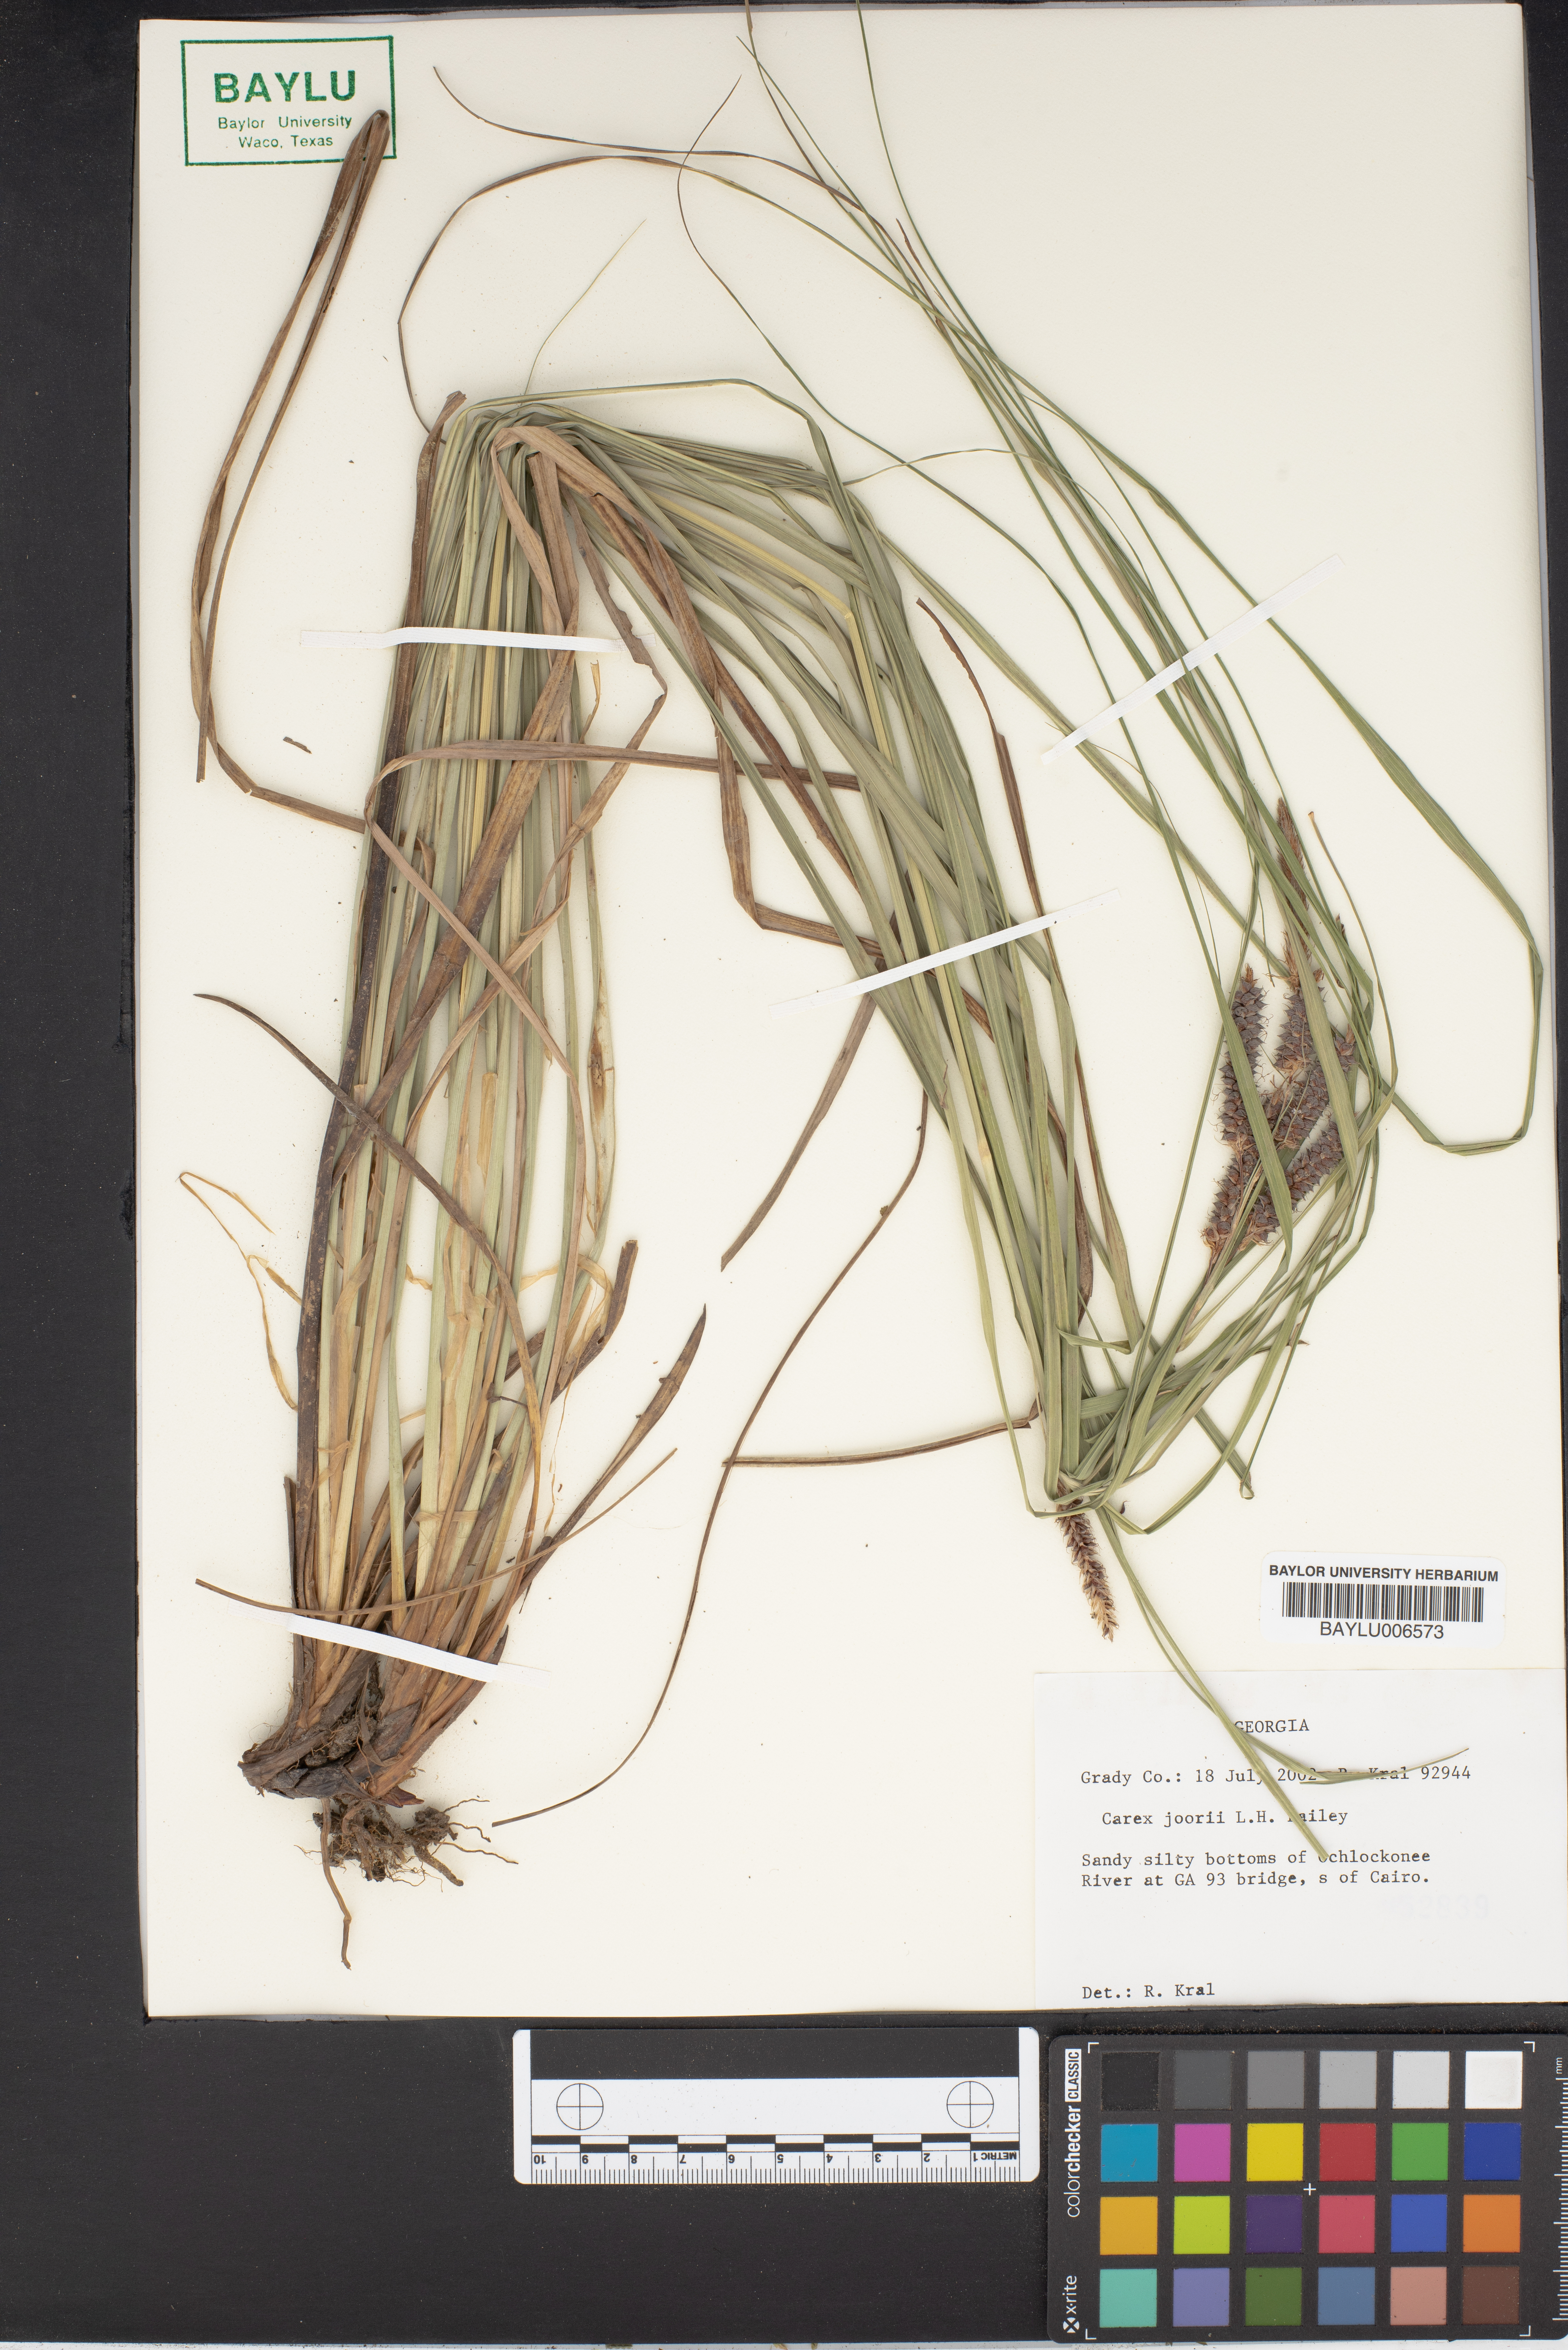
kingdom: Plantae
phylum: Tracheophyta
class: Liliopsida
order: Poales
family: Cyperaceae
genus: Carex
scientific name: Carex joorii
